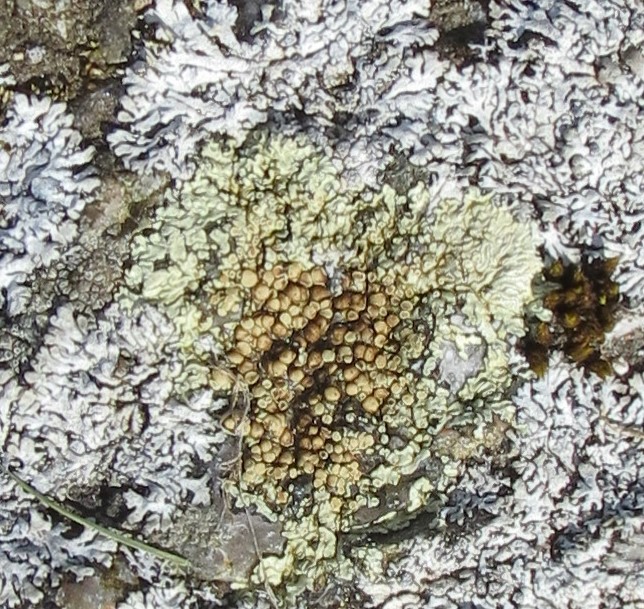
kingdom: Fungi
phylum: Ascomycota
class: Lecanoromycetes
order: Lecanorales
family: Lecanoraceae
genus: Protoparmeliopsis
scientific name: Protoparmeliopsis muralis
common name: randfliget kantskivelav
